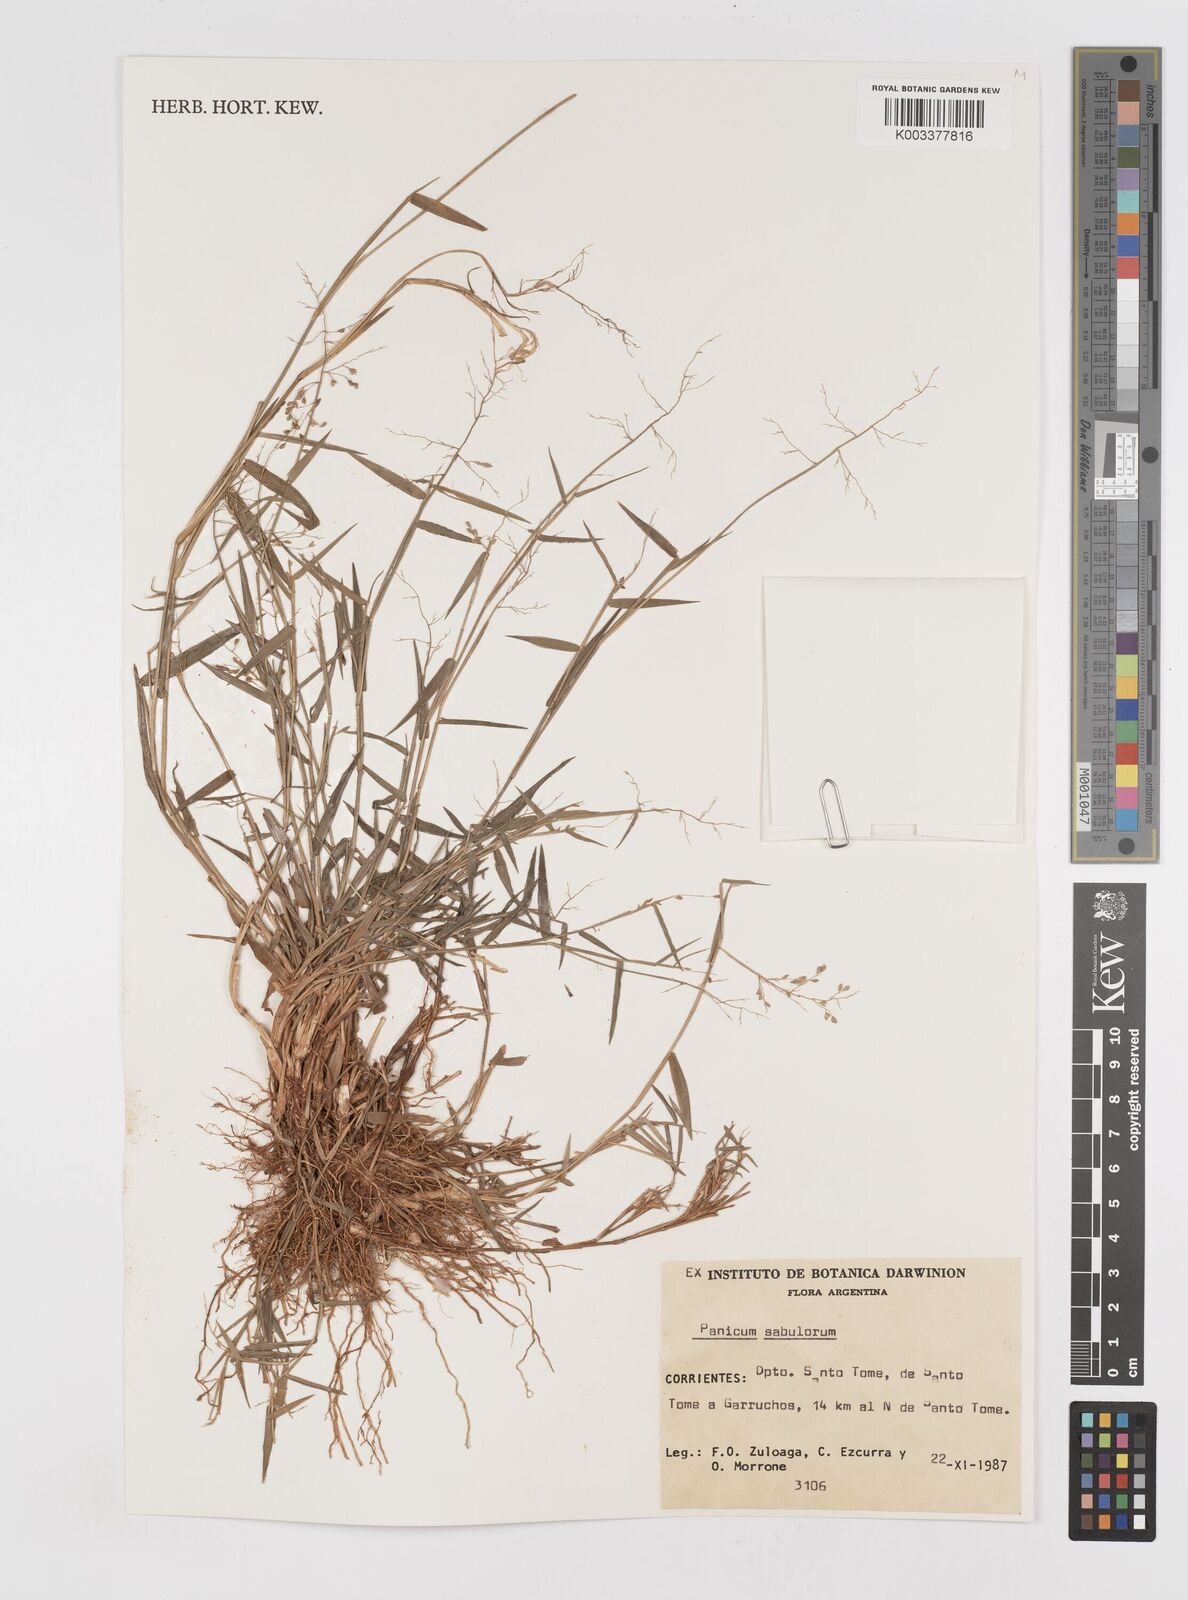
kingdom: Plantae
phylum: Tracheophyta
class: Liliopsida
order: Poales
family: Poaceae
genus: Dichanthelium
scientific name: Dichanthelium sabulorum
